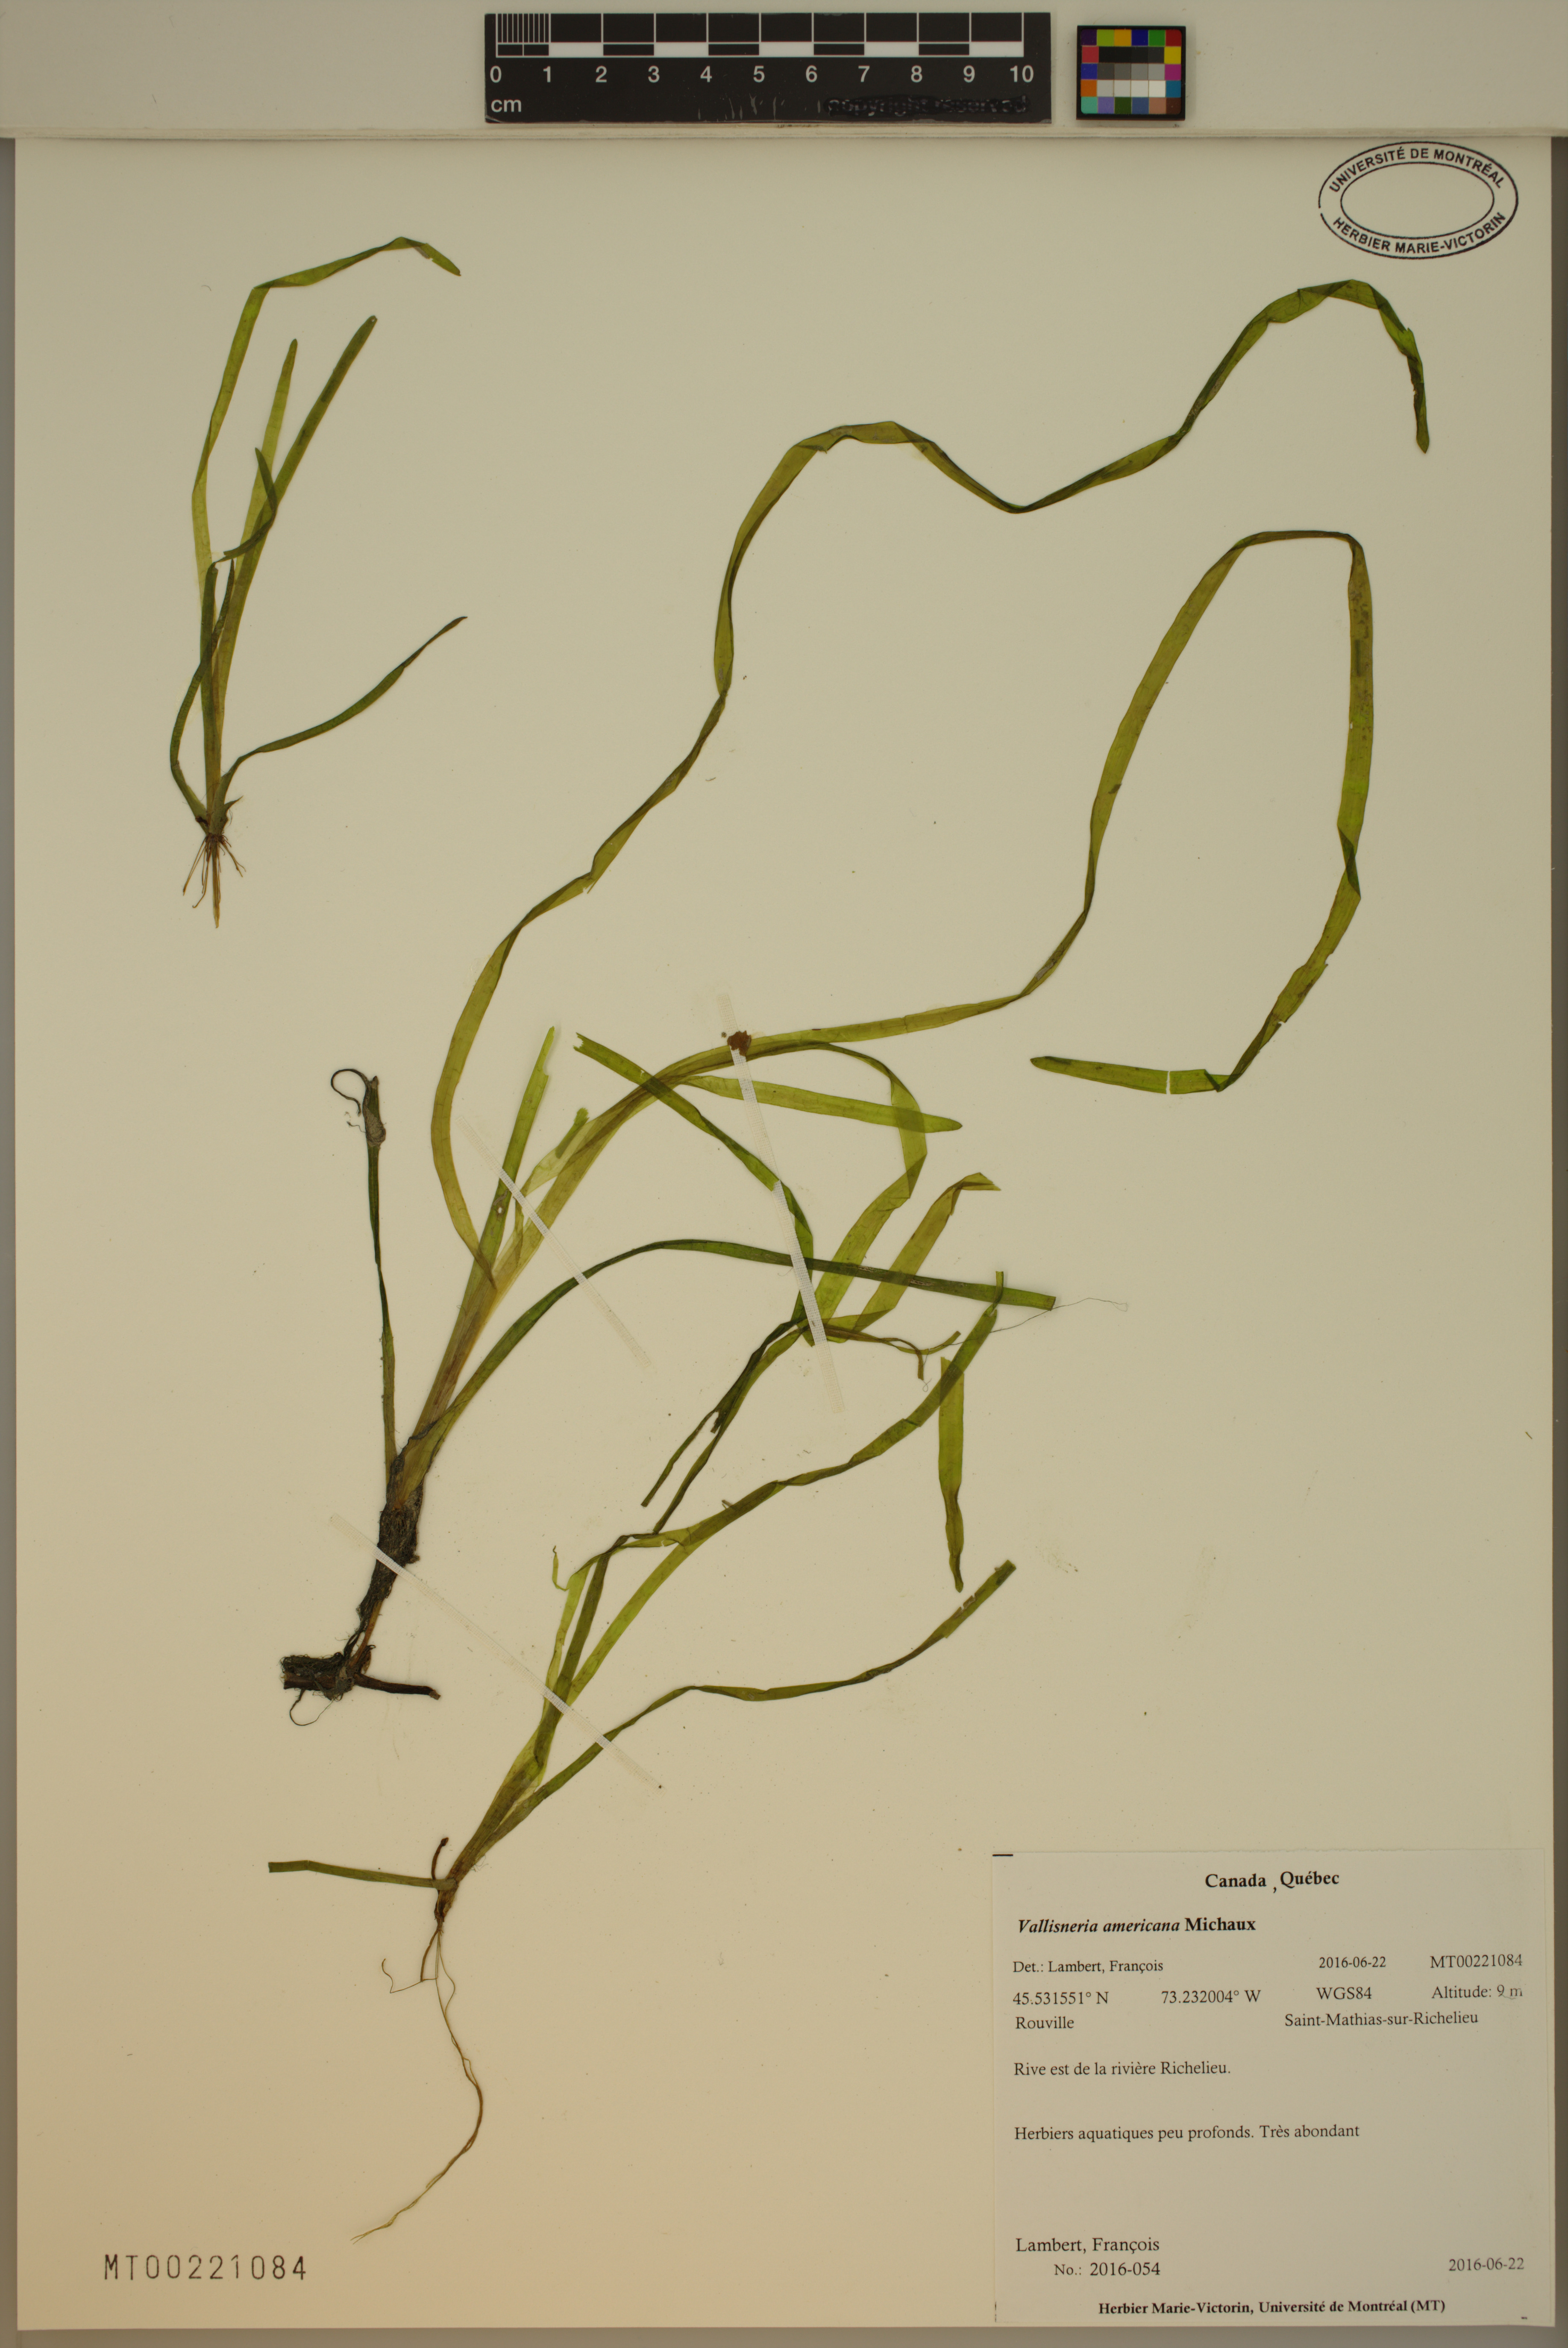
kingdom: Plantae
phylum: Tracheophyta
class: Liliopsida
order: Alismatales
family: Hydrocharitaceae
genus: Vallisneria
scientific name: Vallisneria americana
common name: American eelgrass
